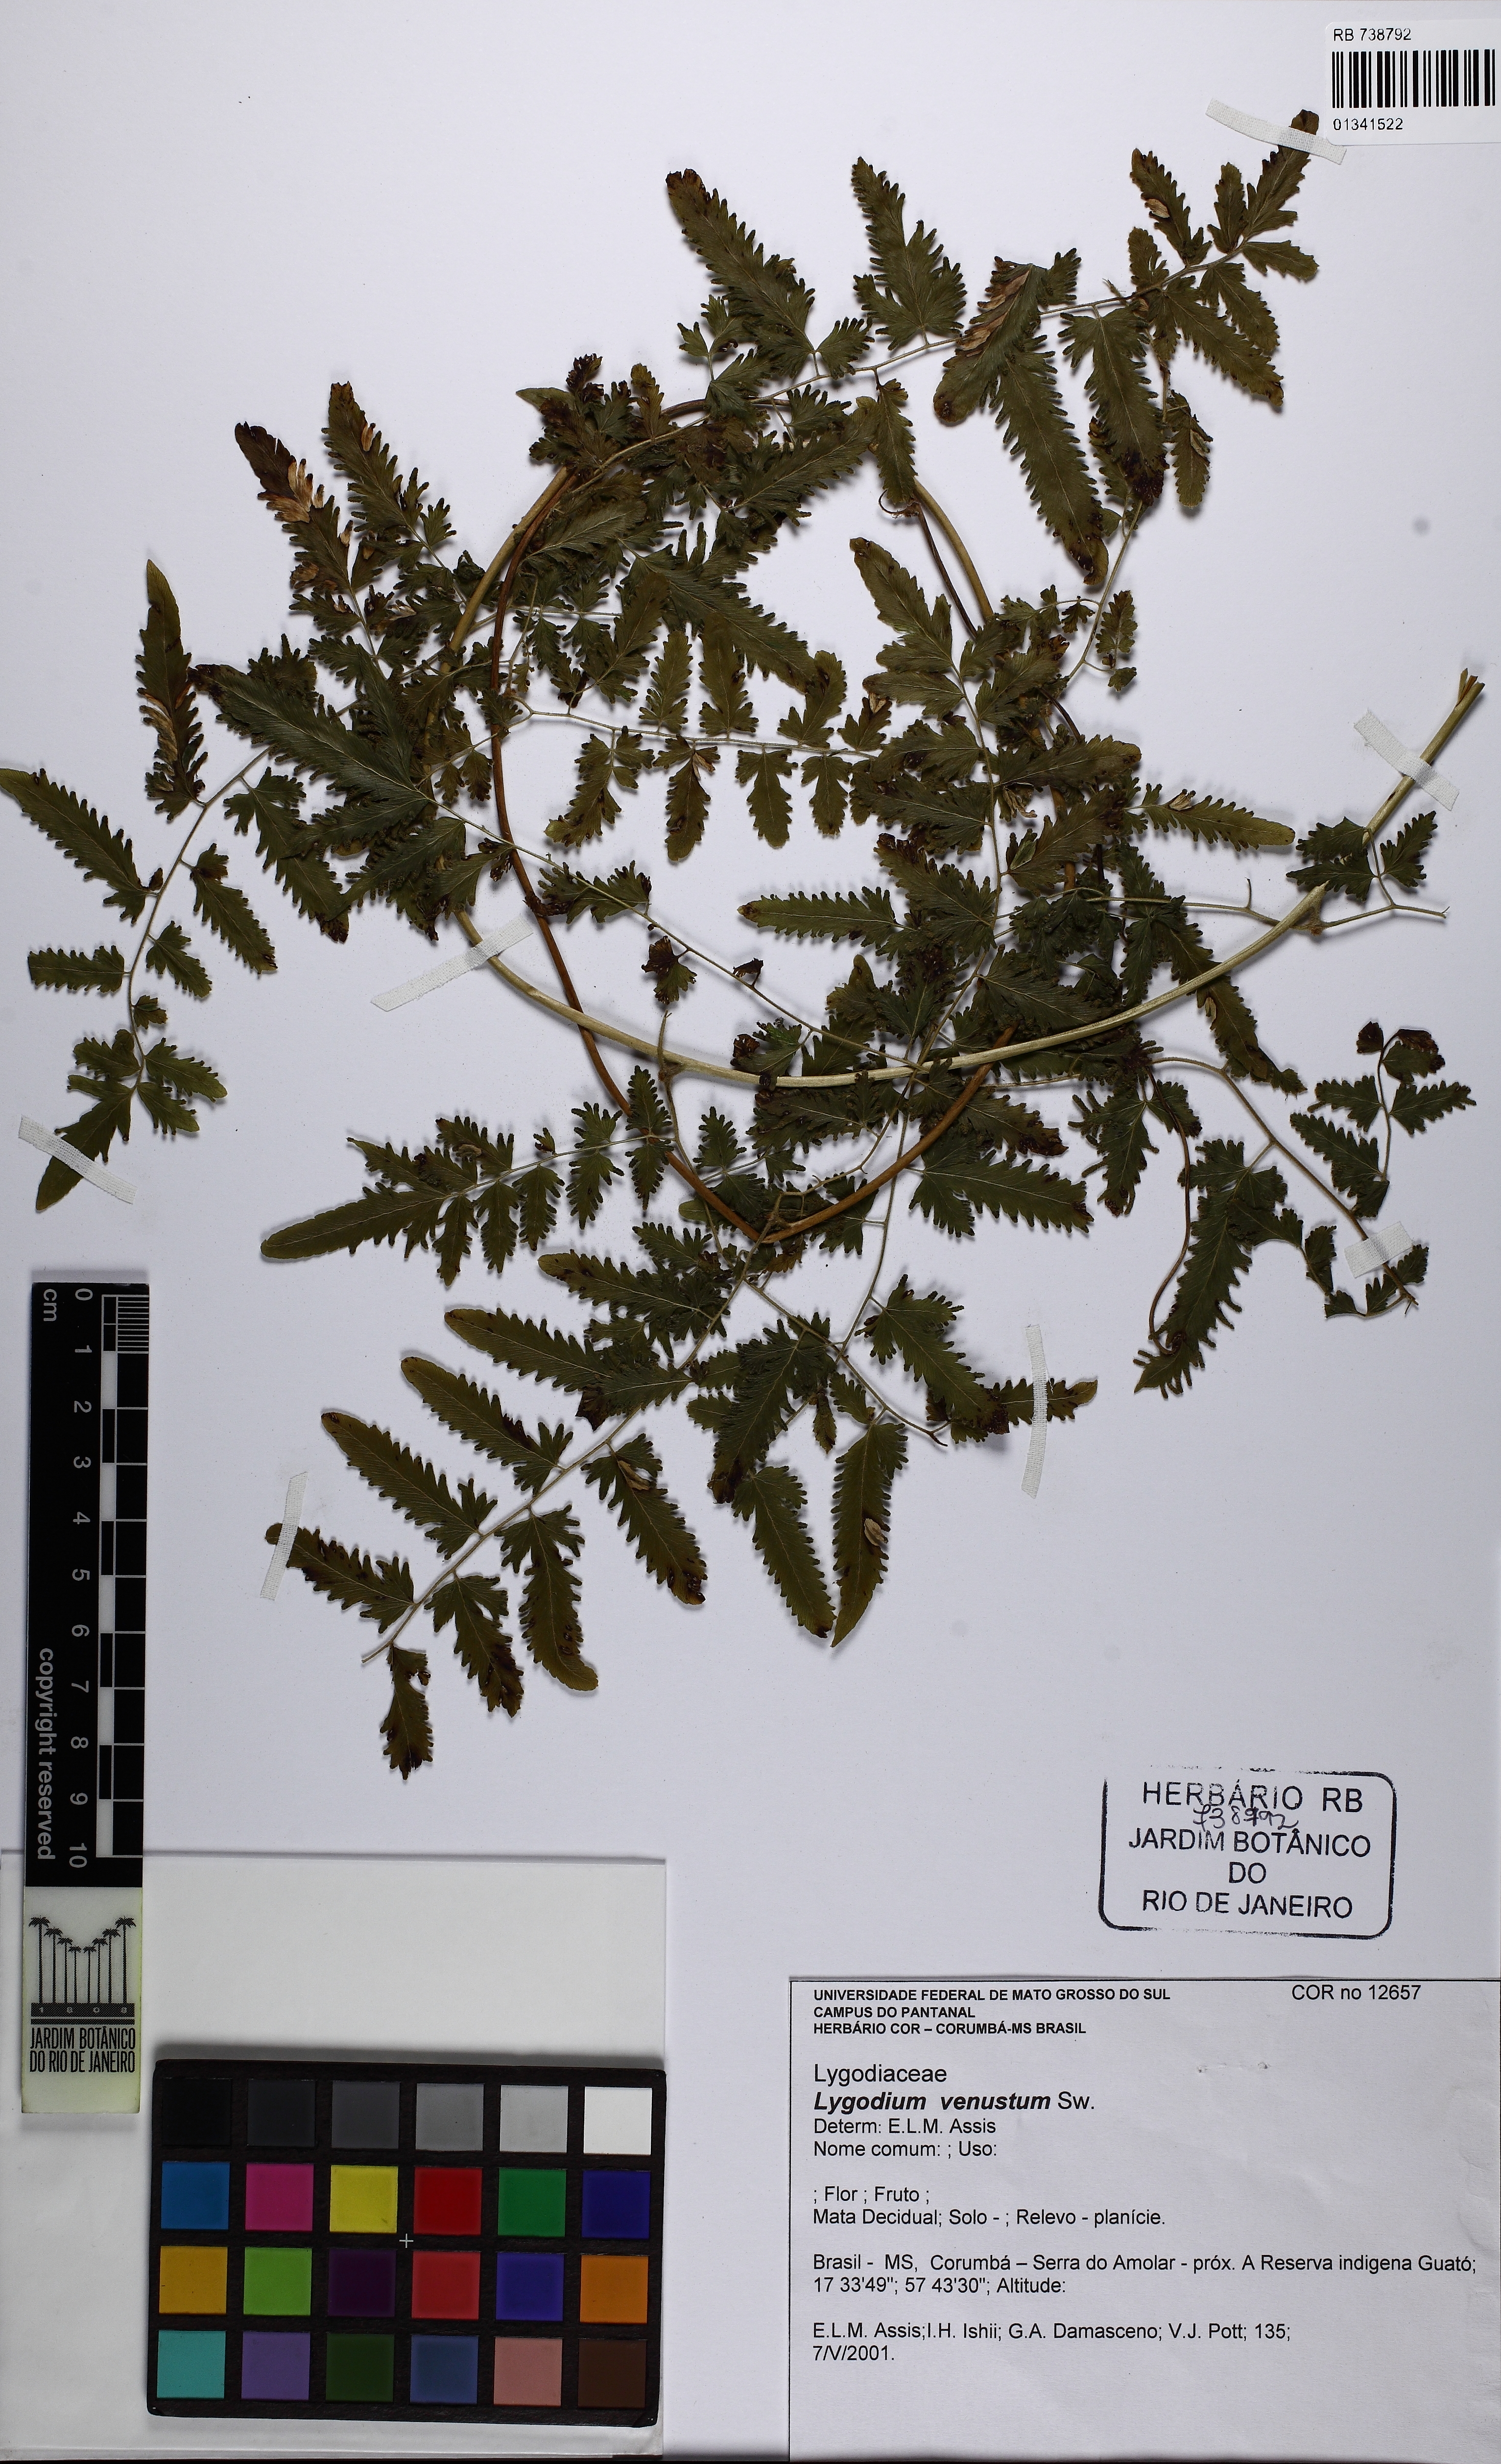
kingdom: Plantae
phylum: Tracheophyta
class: Polypodiopsida
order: Schizaeales
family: Lygodiaceae
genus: Lygodium
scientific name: Lygodium venustum
